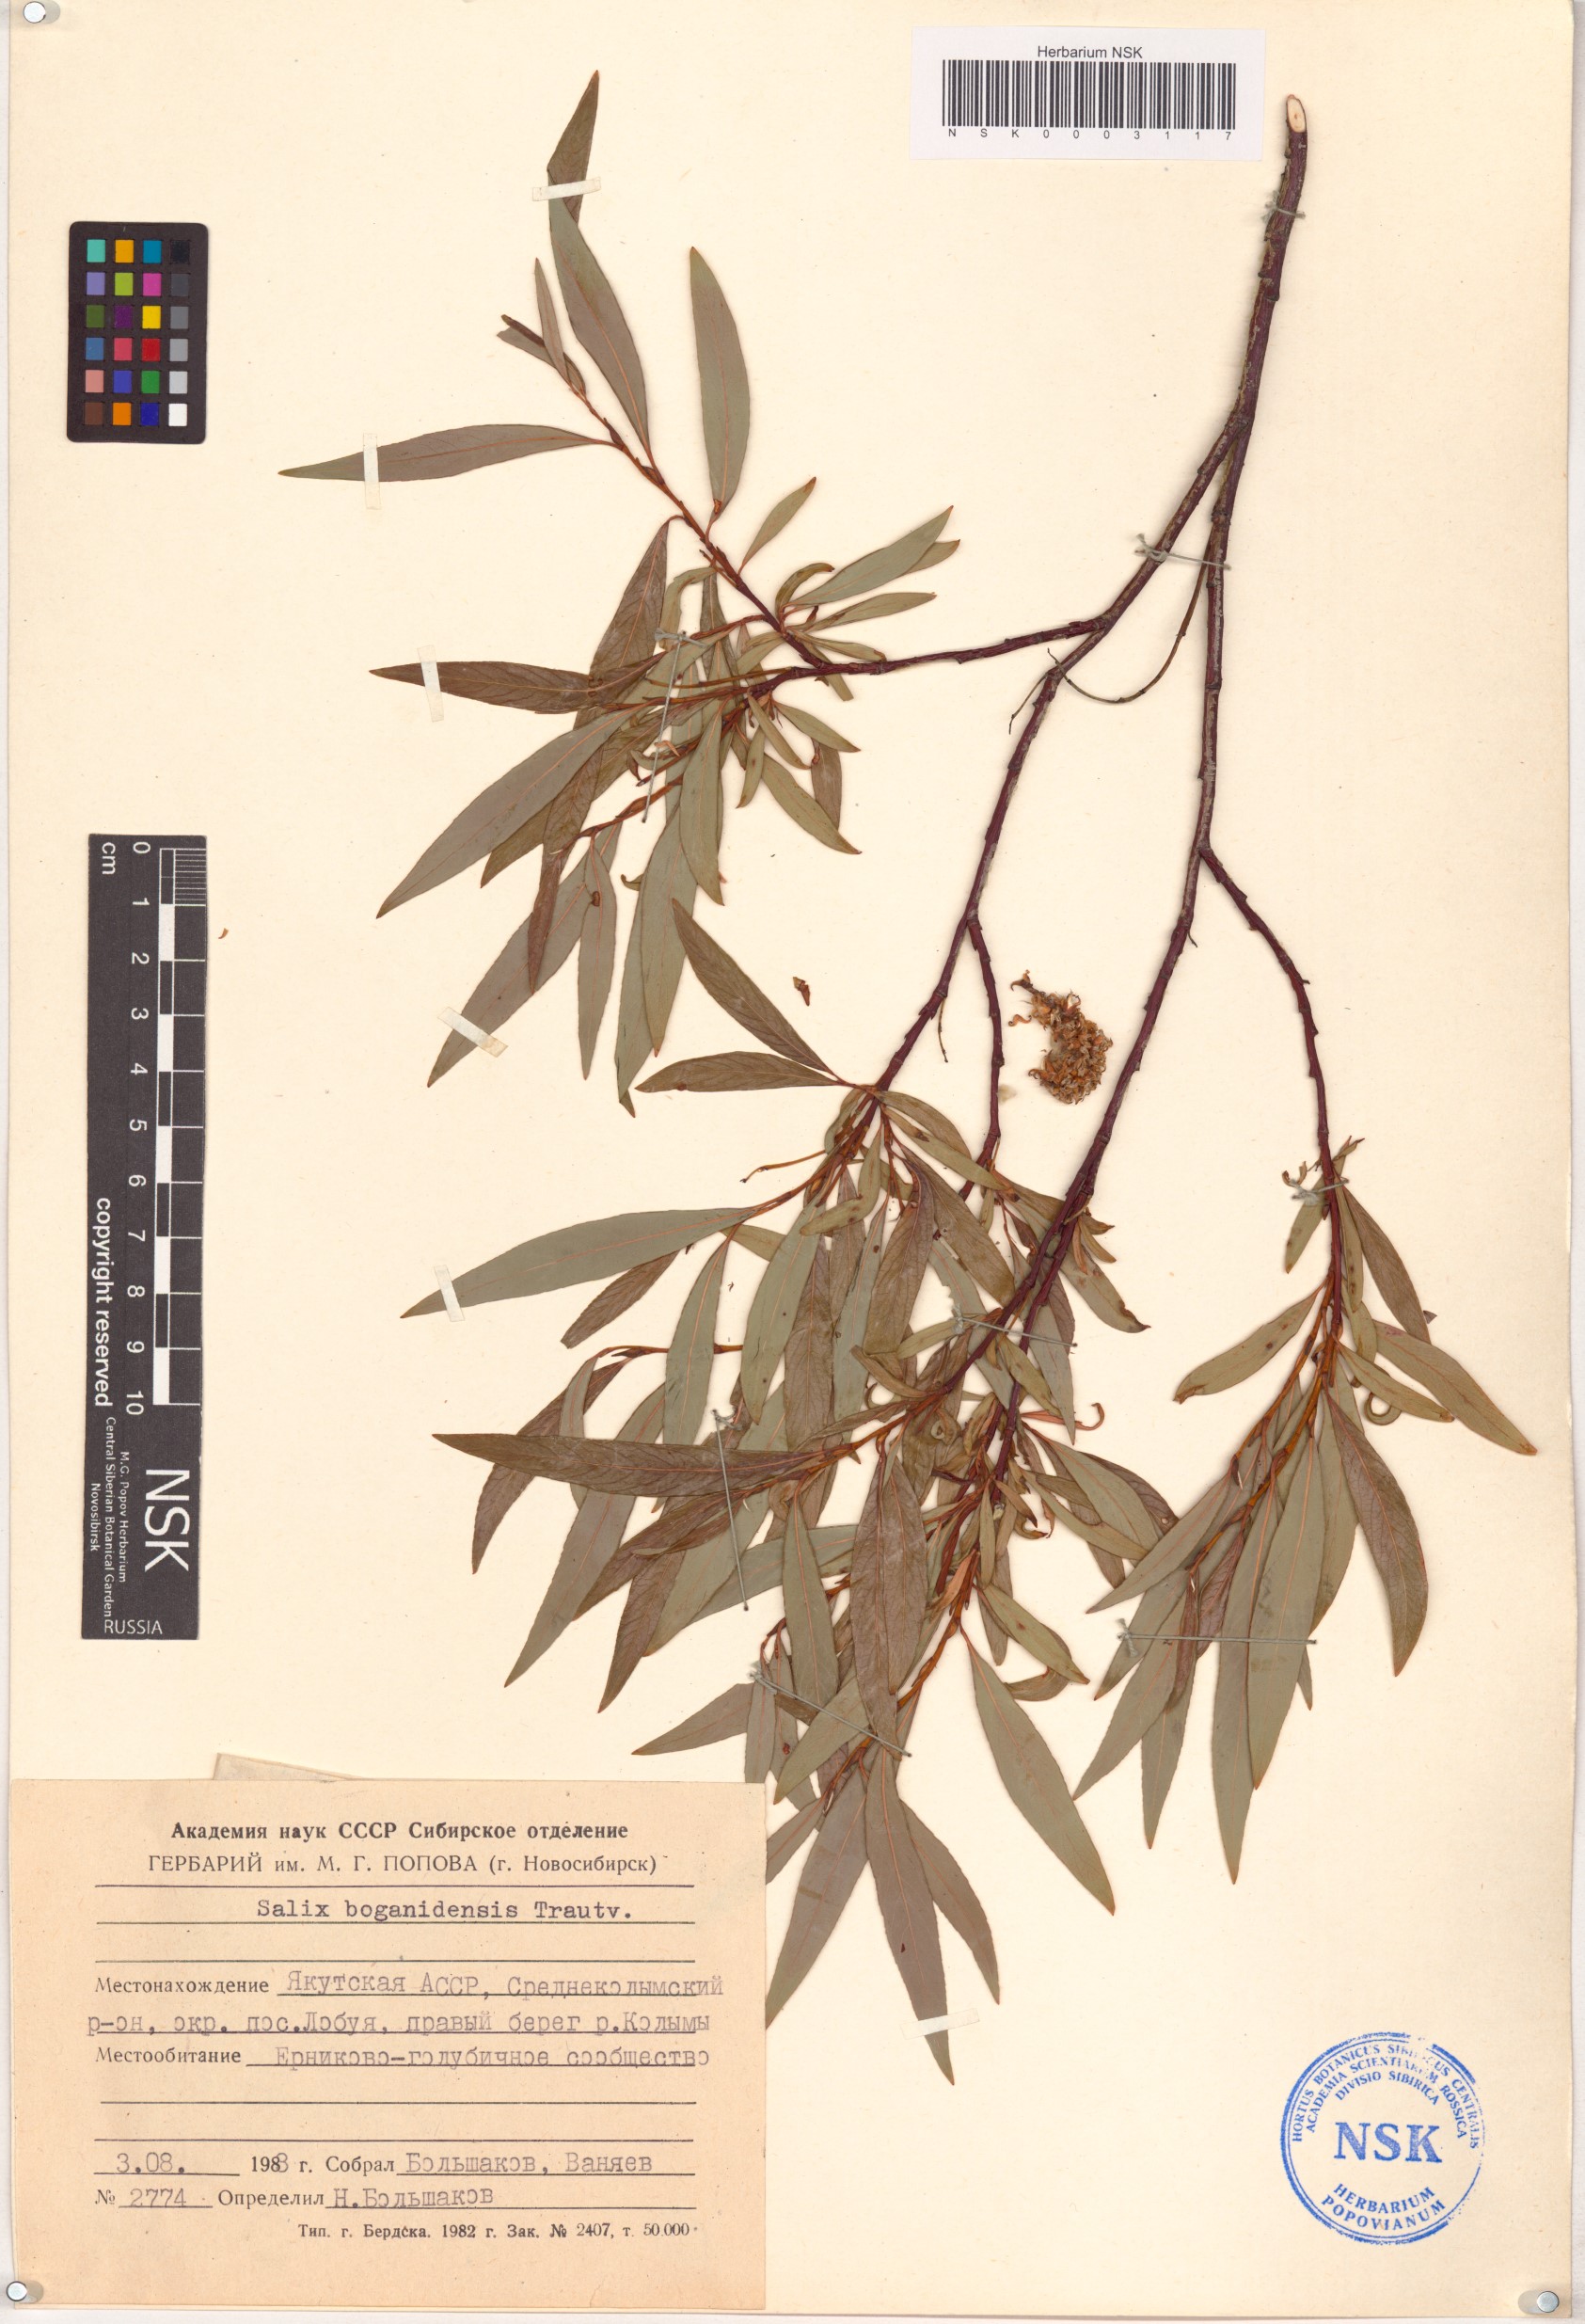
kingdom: Plantae
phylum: Tracheophyta
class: Magnoliopsida
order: Malpighiales
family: Salicaceae
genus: Salix
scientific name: Salix boganidensis
